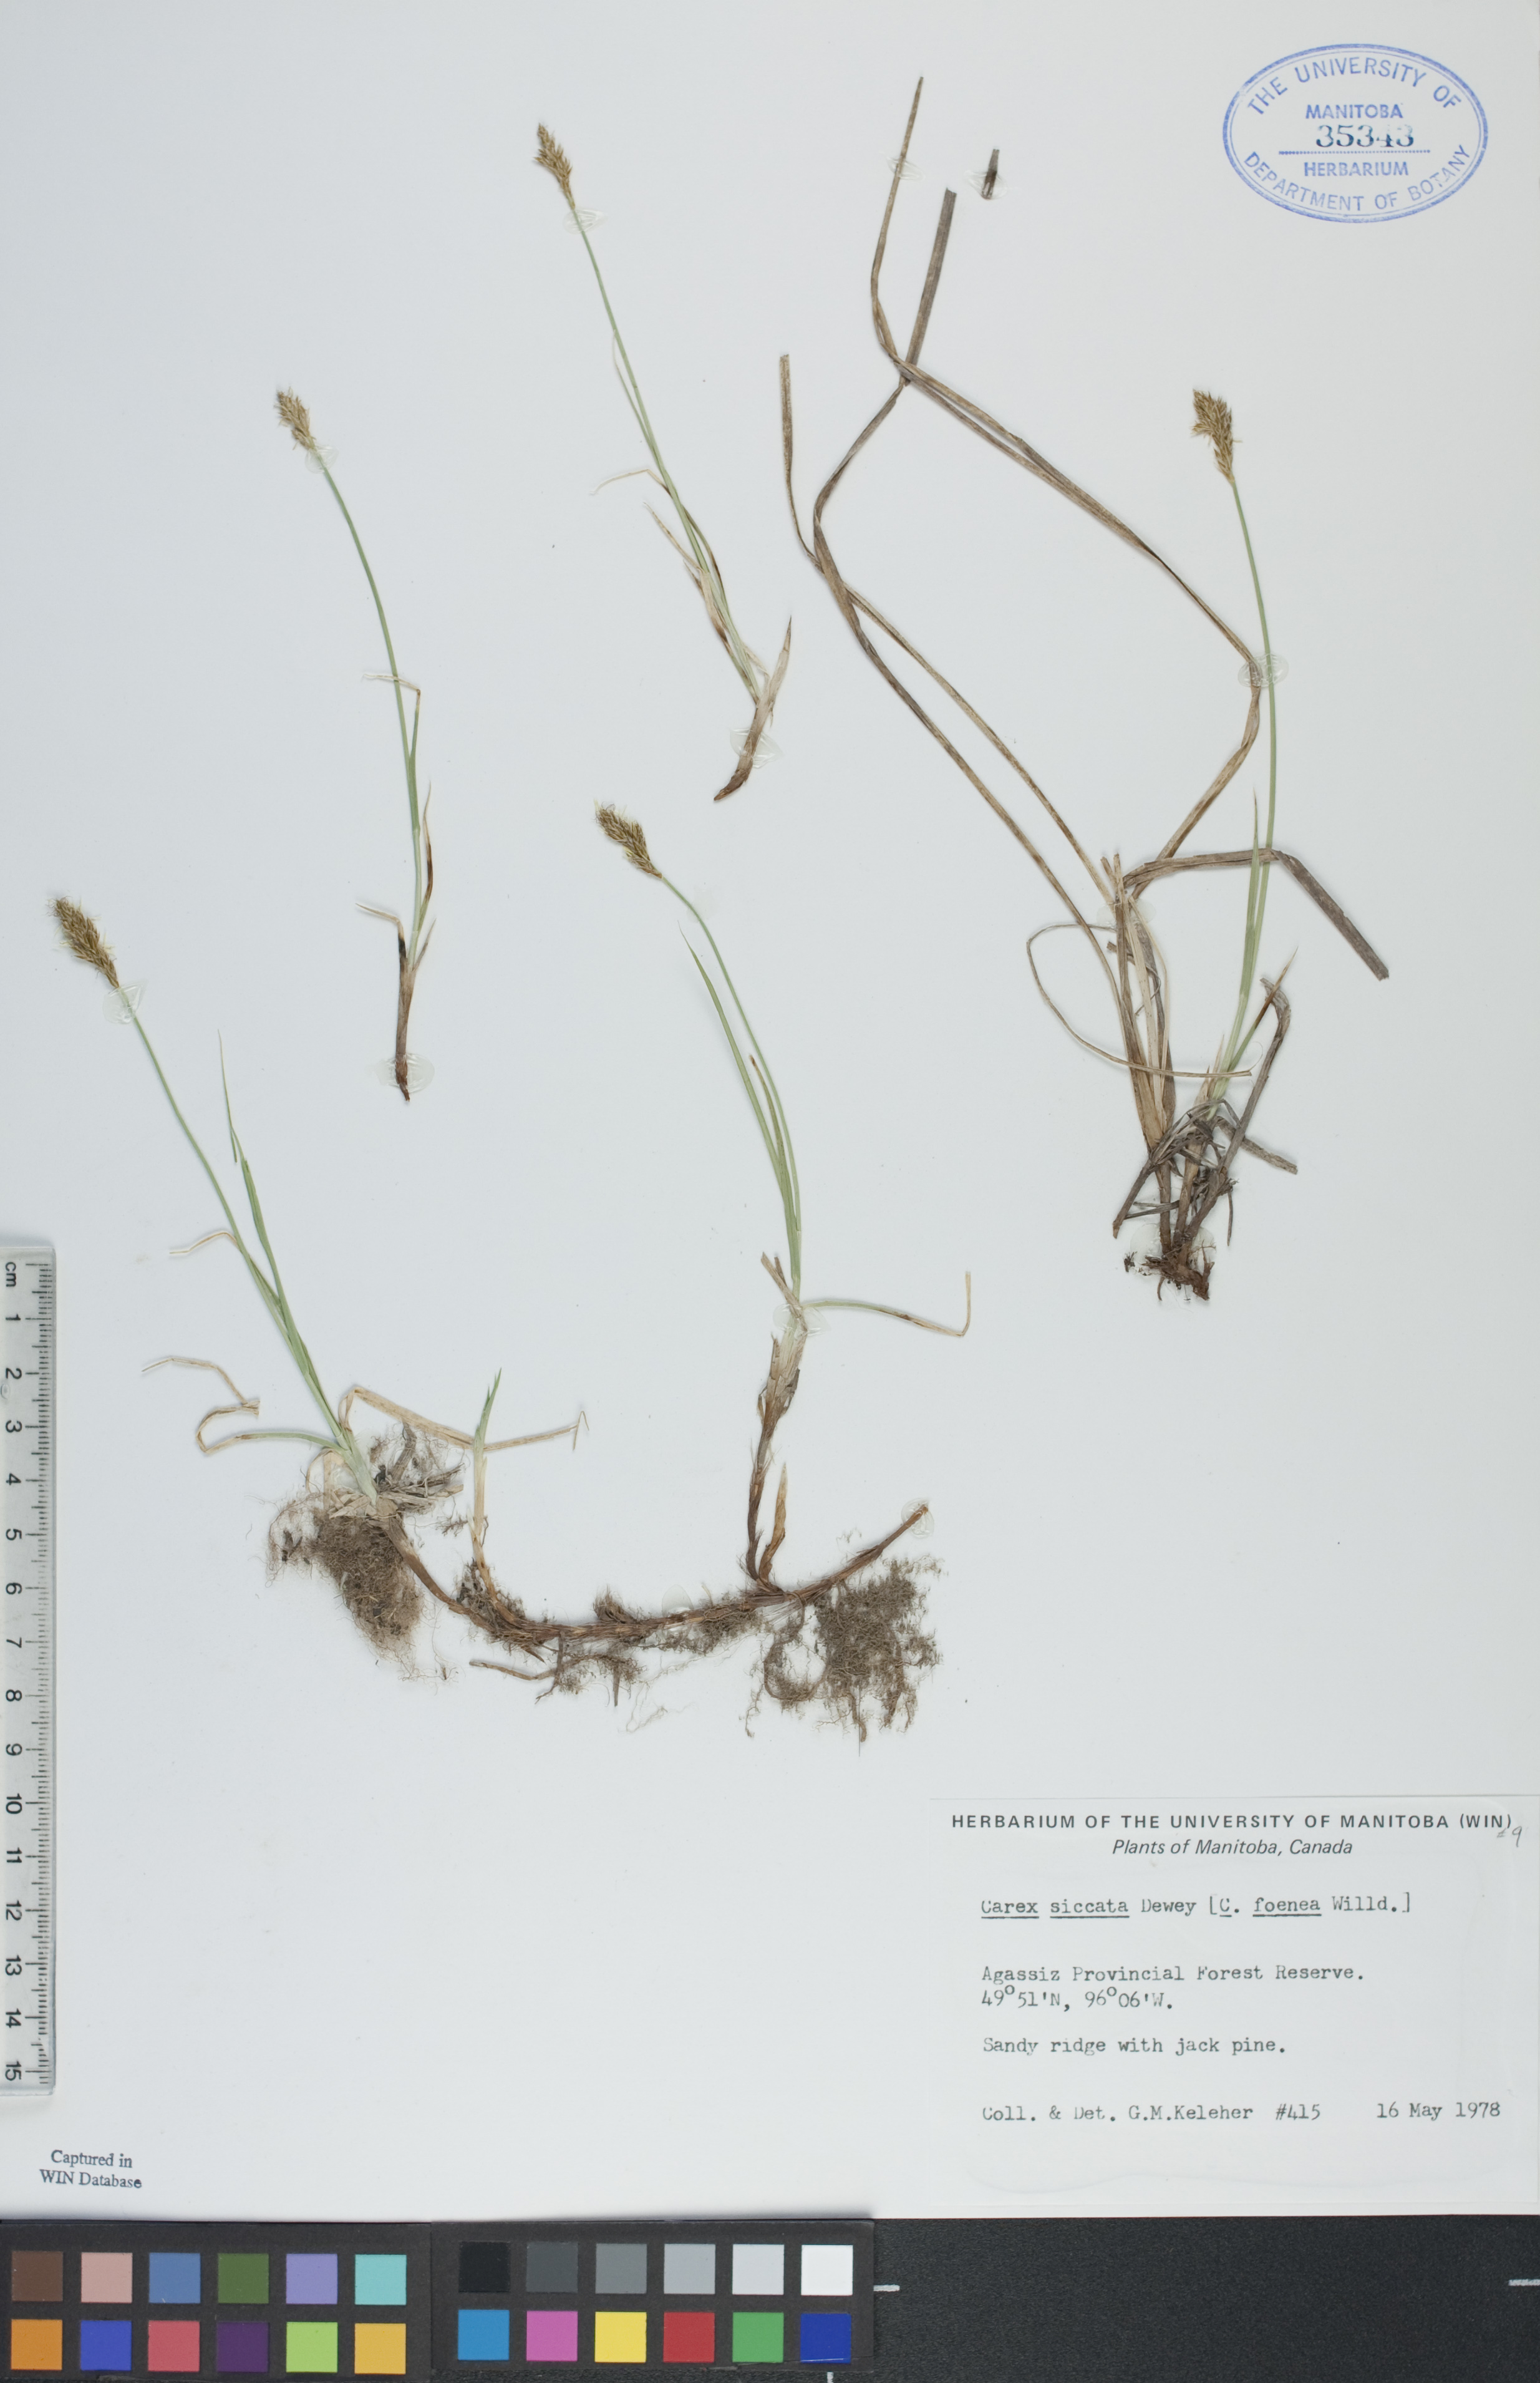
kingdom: Plantae
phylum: Tracheophyta
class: Liliopsida
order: Poales
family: Cyperaceae
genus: Carex
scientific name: Carex siccata
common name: Dry sedge
